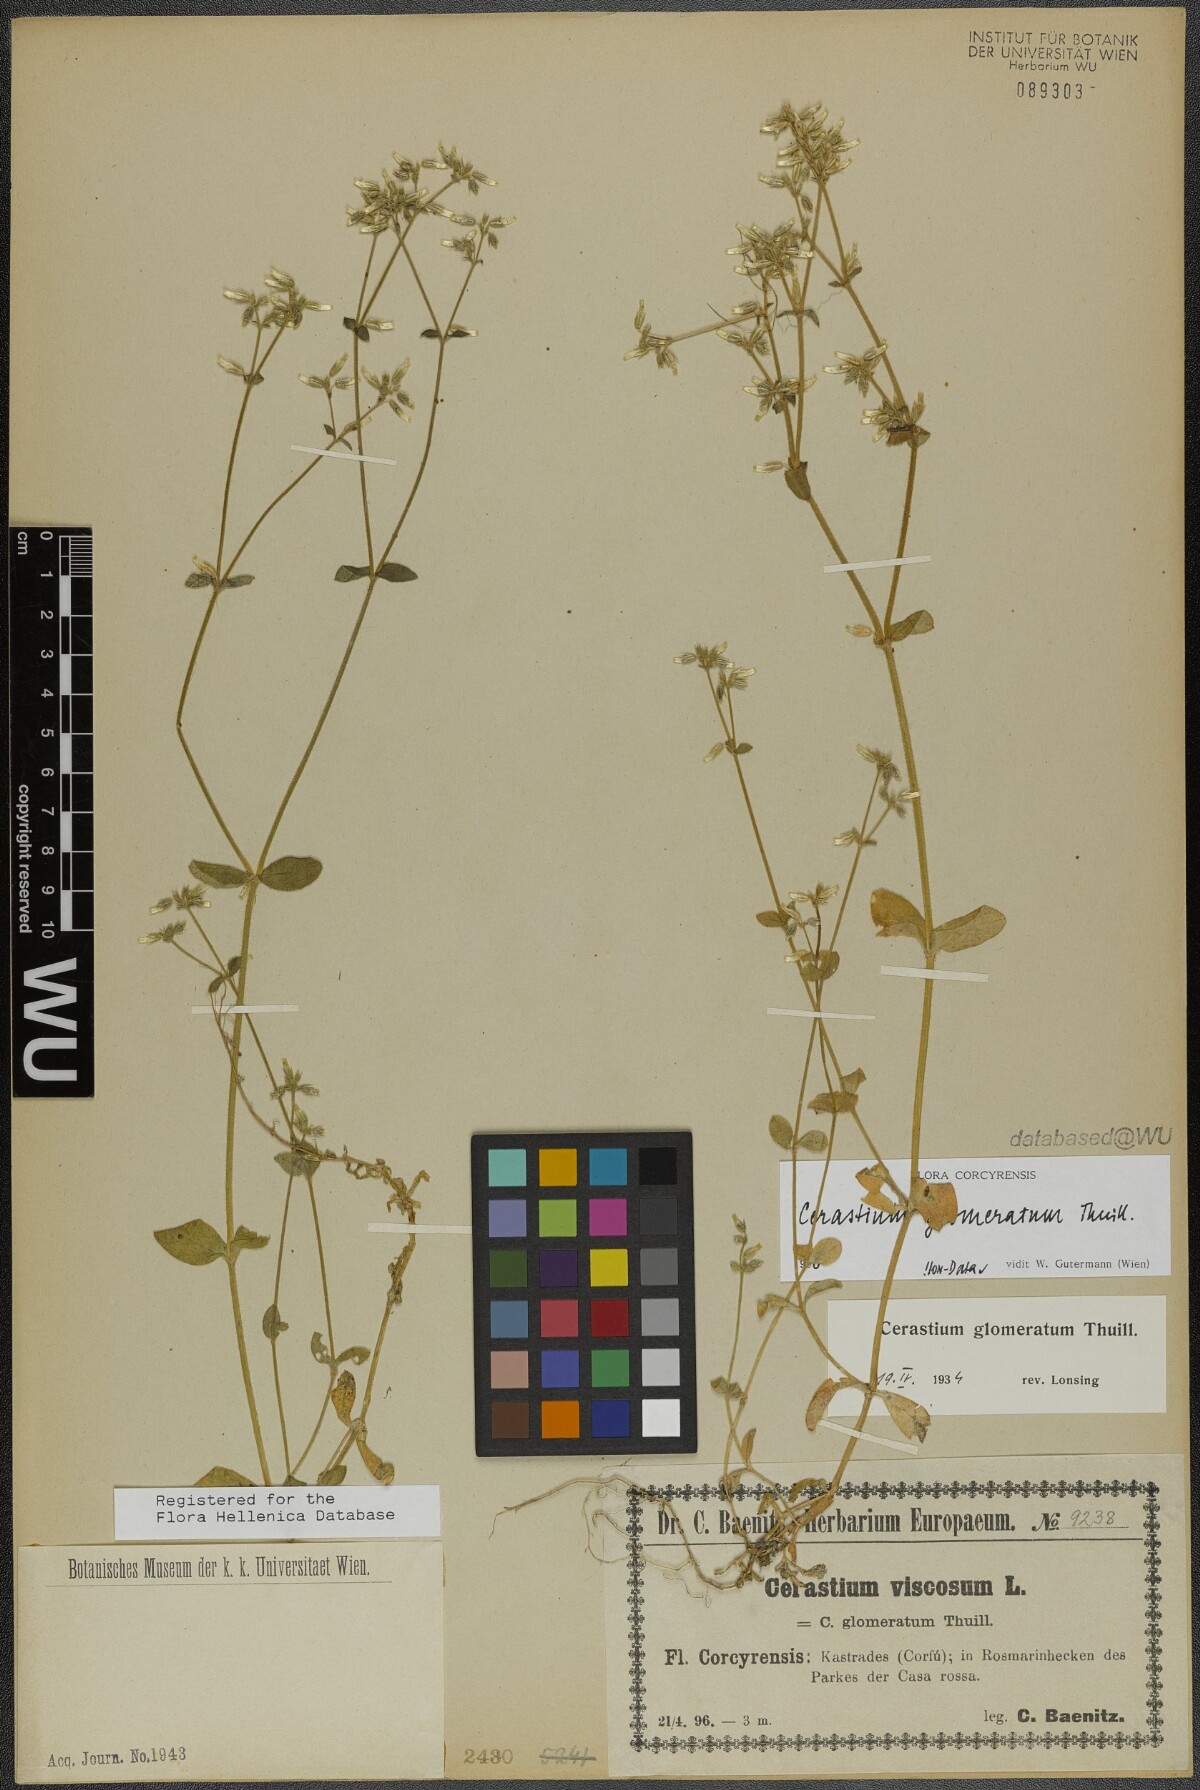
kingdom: Plantae
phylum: Tracheophyta
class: Magnoliopsida
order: Caryophyllales
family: Caryophyllaceae
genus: Cerastium
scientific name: Cerastium glomeratum
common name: Sticky chickweed
